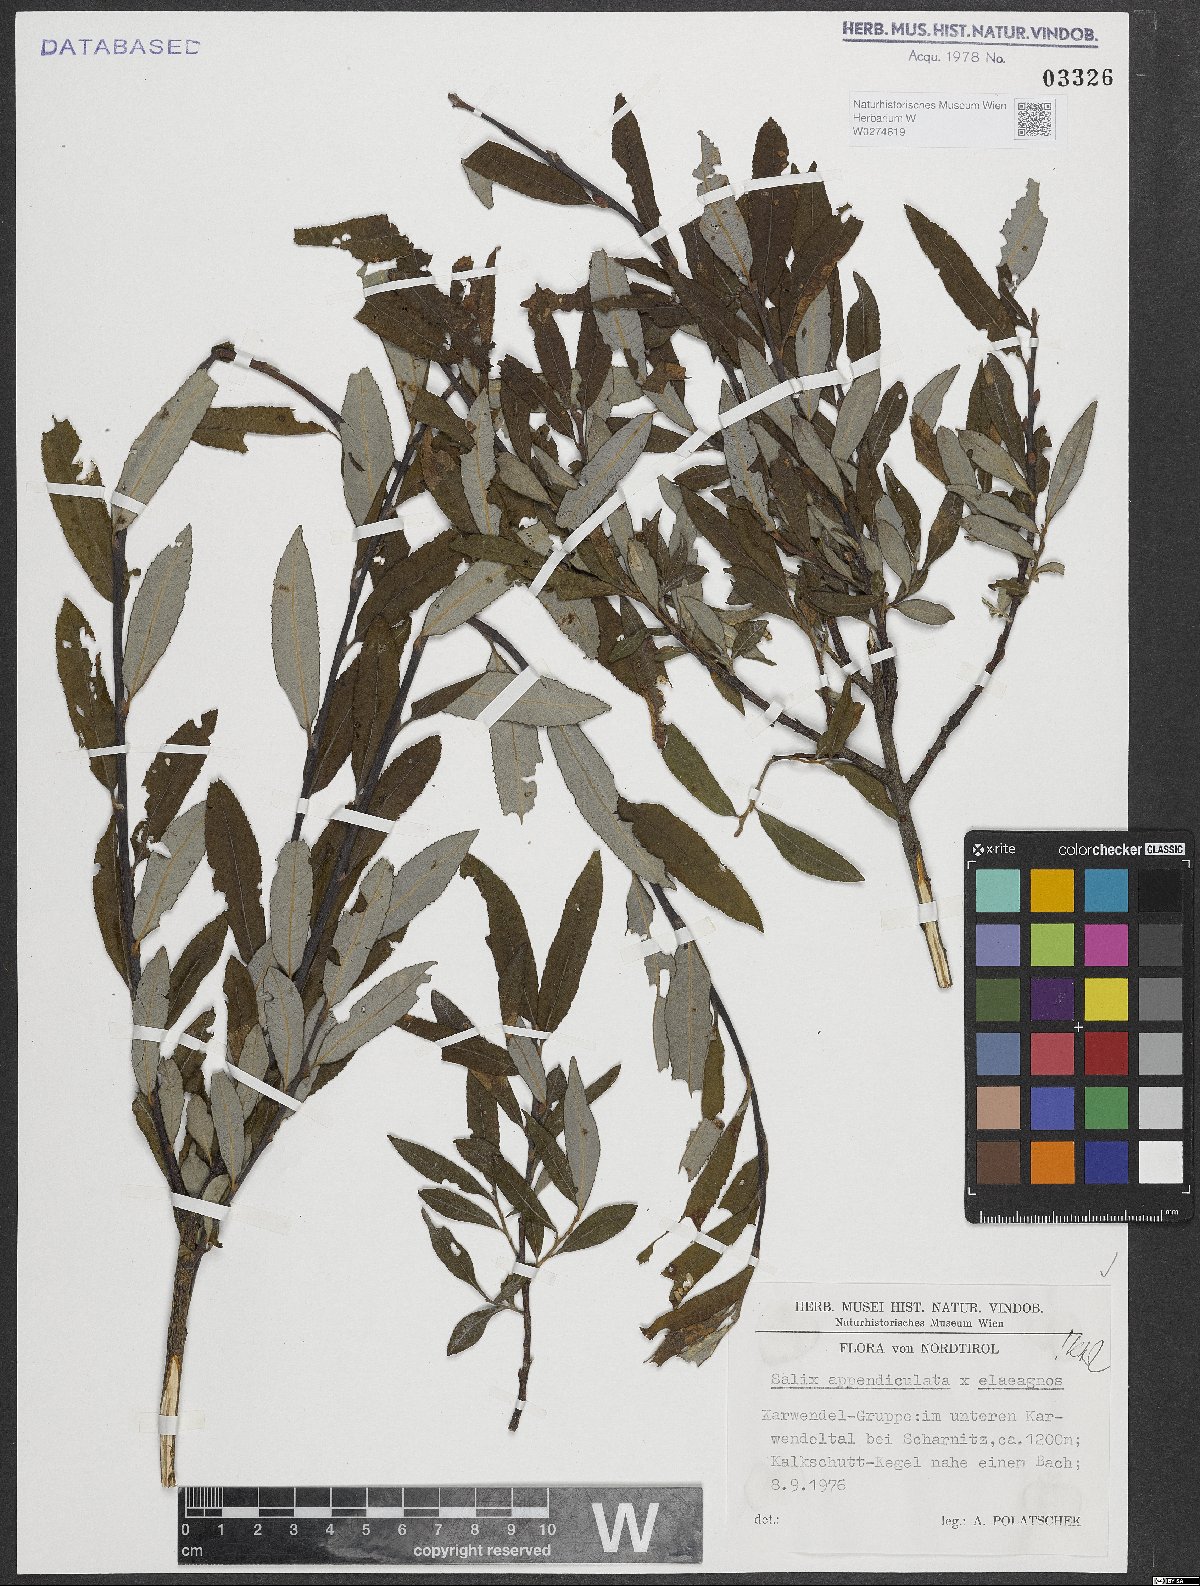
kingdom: Plantae
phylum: Tracheophyta
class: Magnoliopsida
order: Malpighiales
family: Salicaceae
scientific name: Salicaceae
